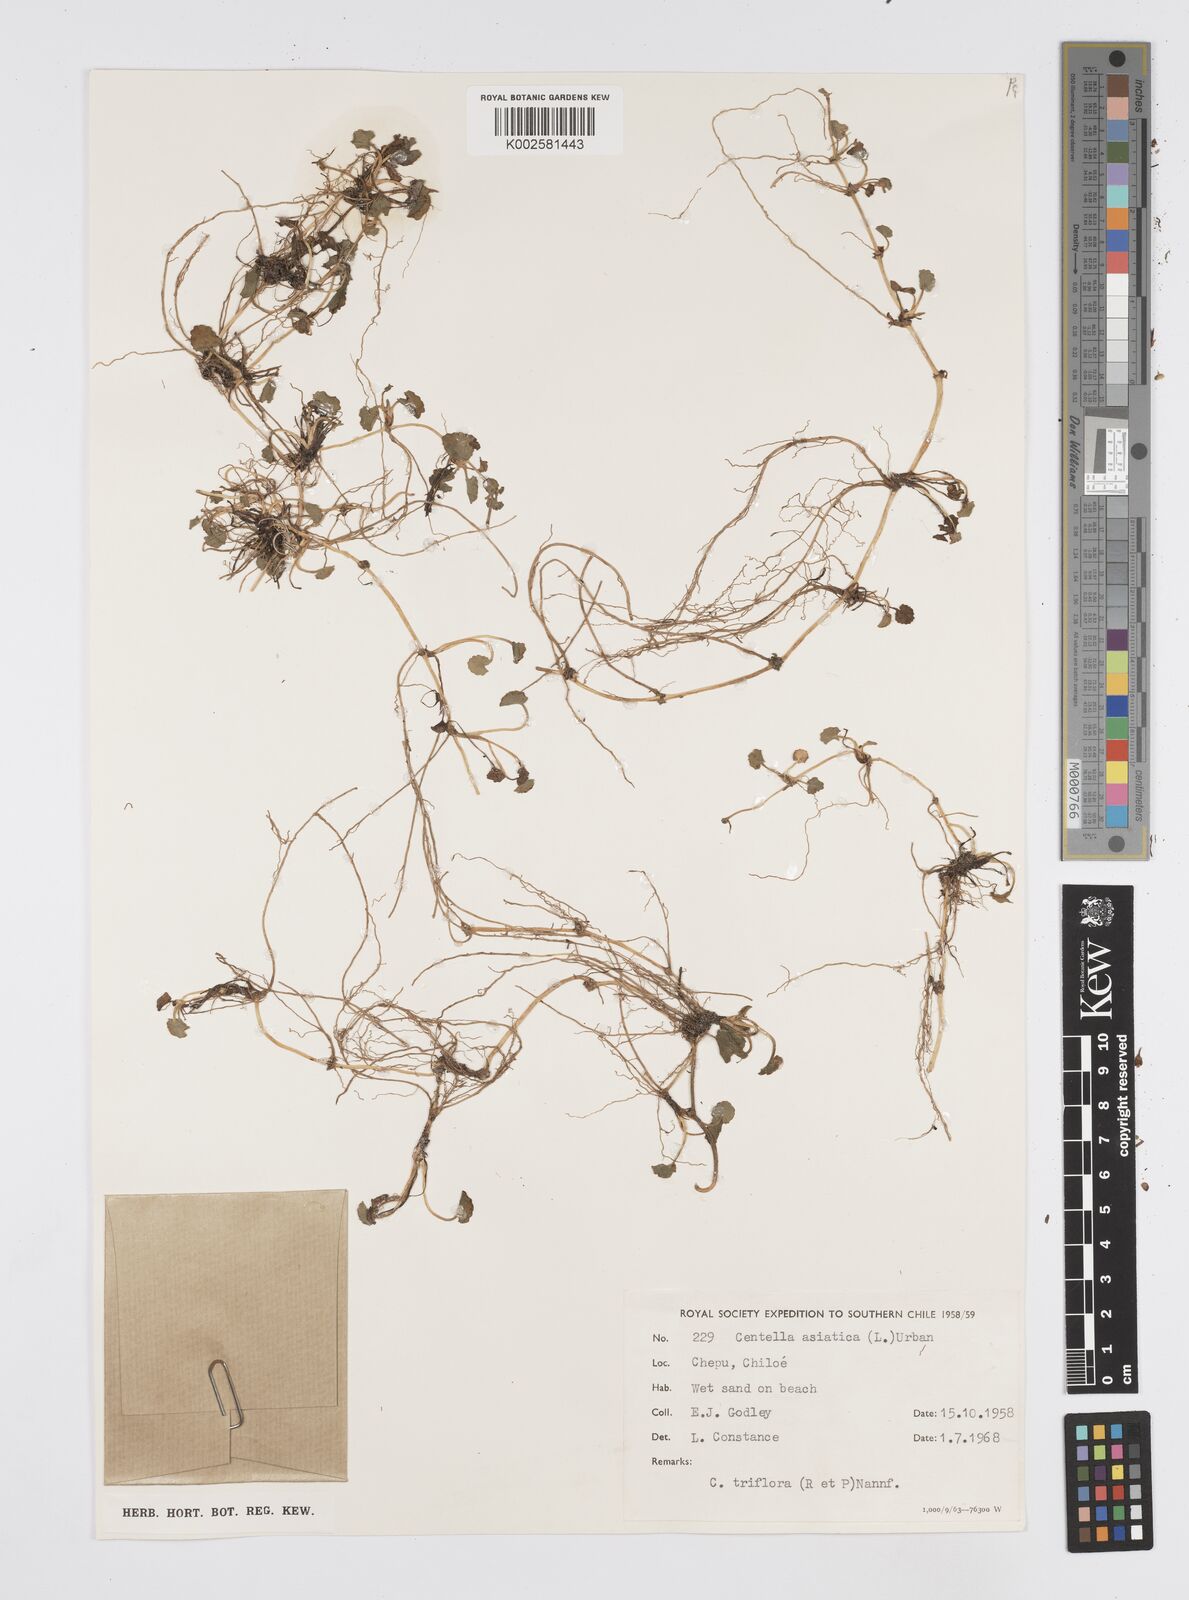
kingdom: Plantae
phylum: Tracheophyta
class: Magnoliopsida
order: Apiales
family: Apiaceae
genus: Centella
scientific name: Centella asiatica
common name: Spadeleaf
